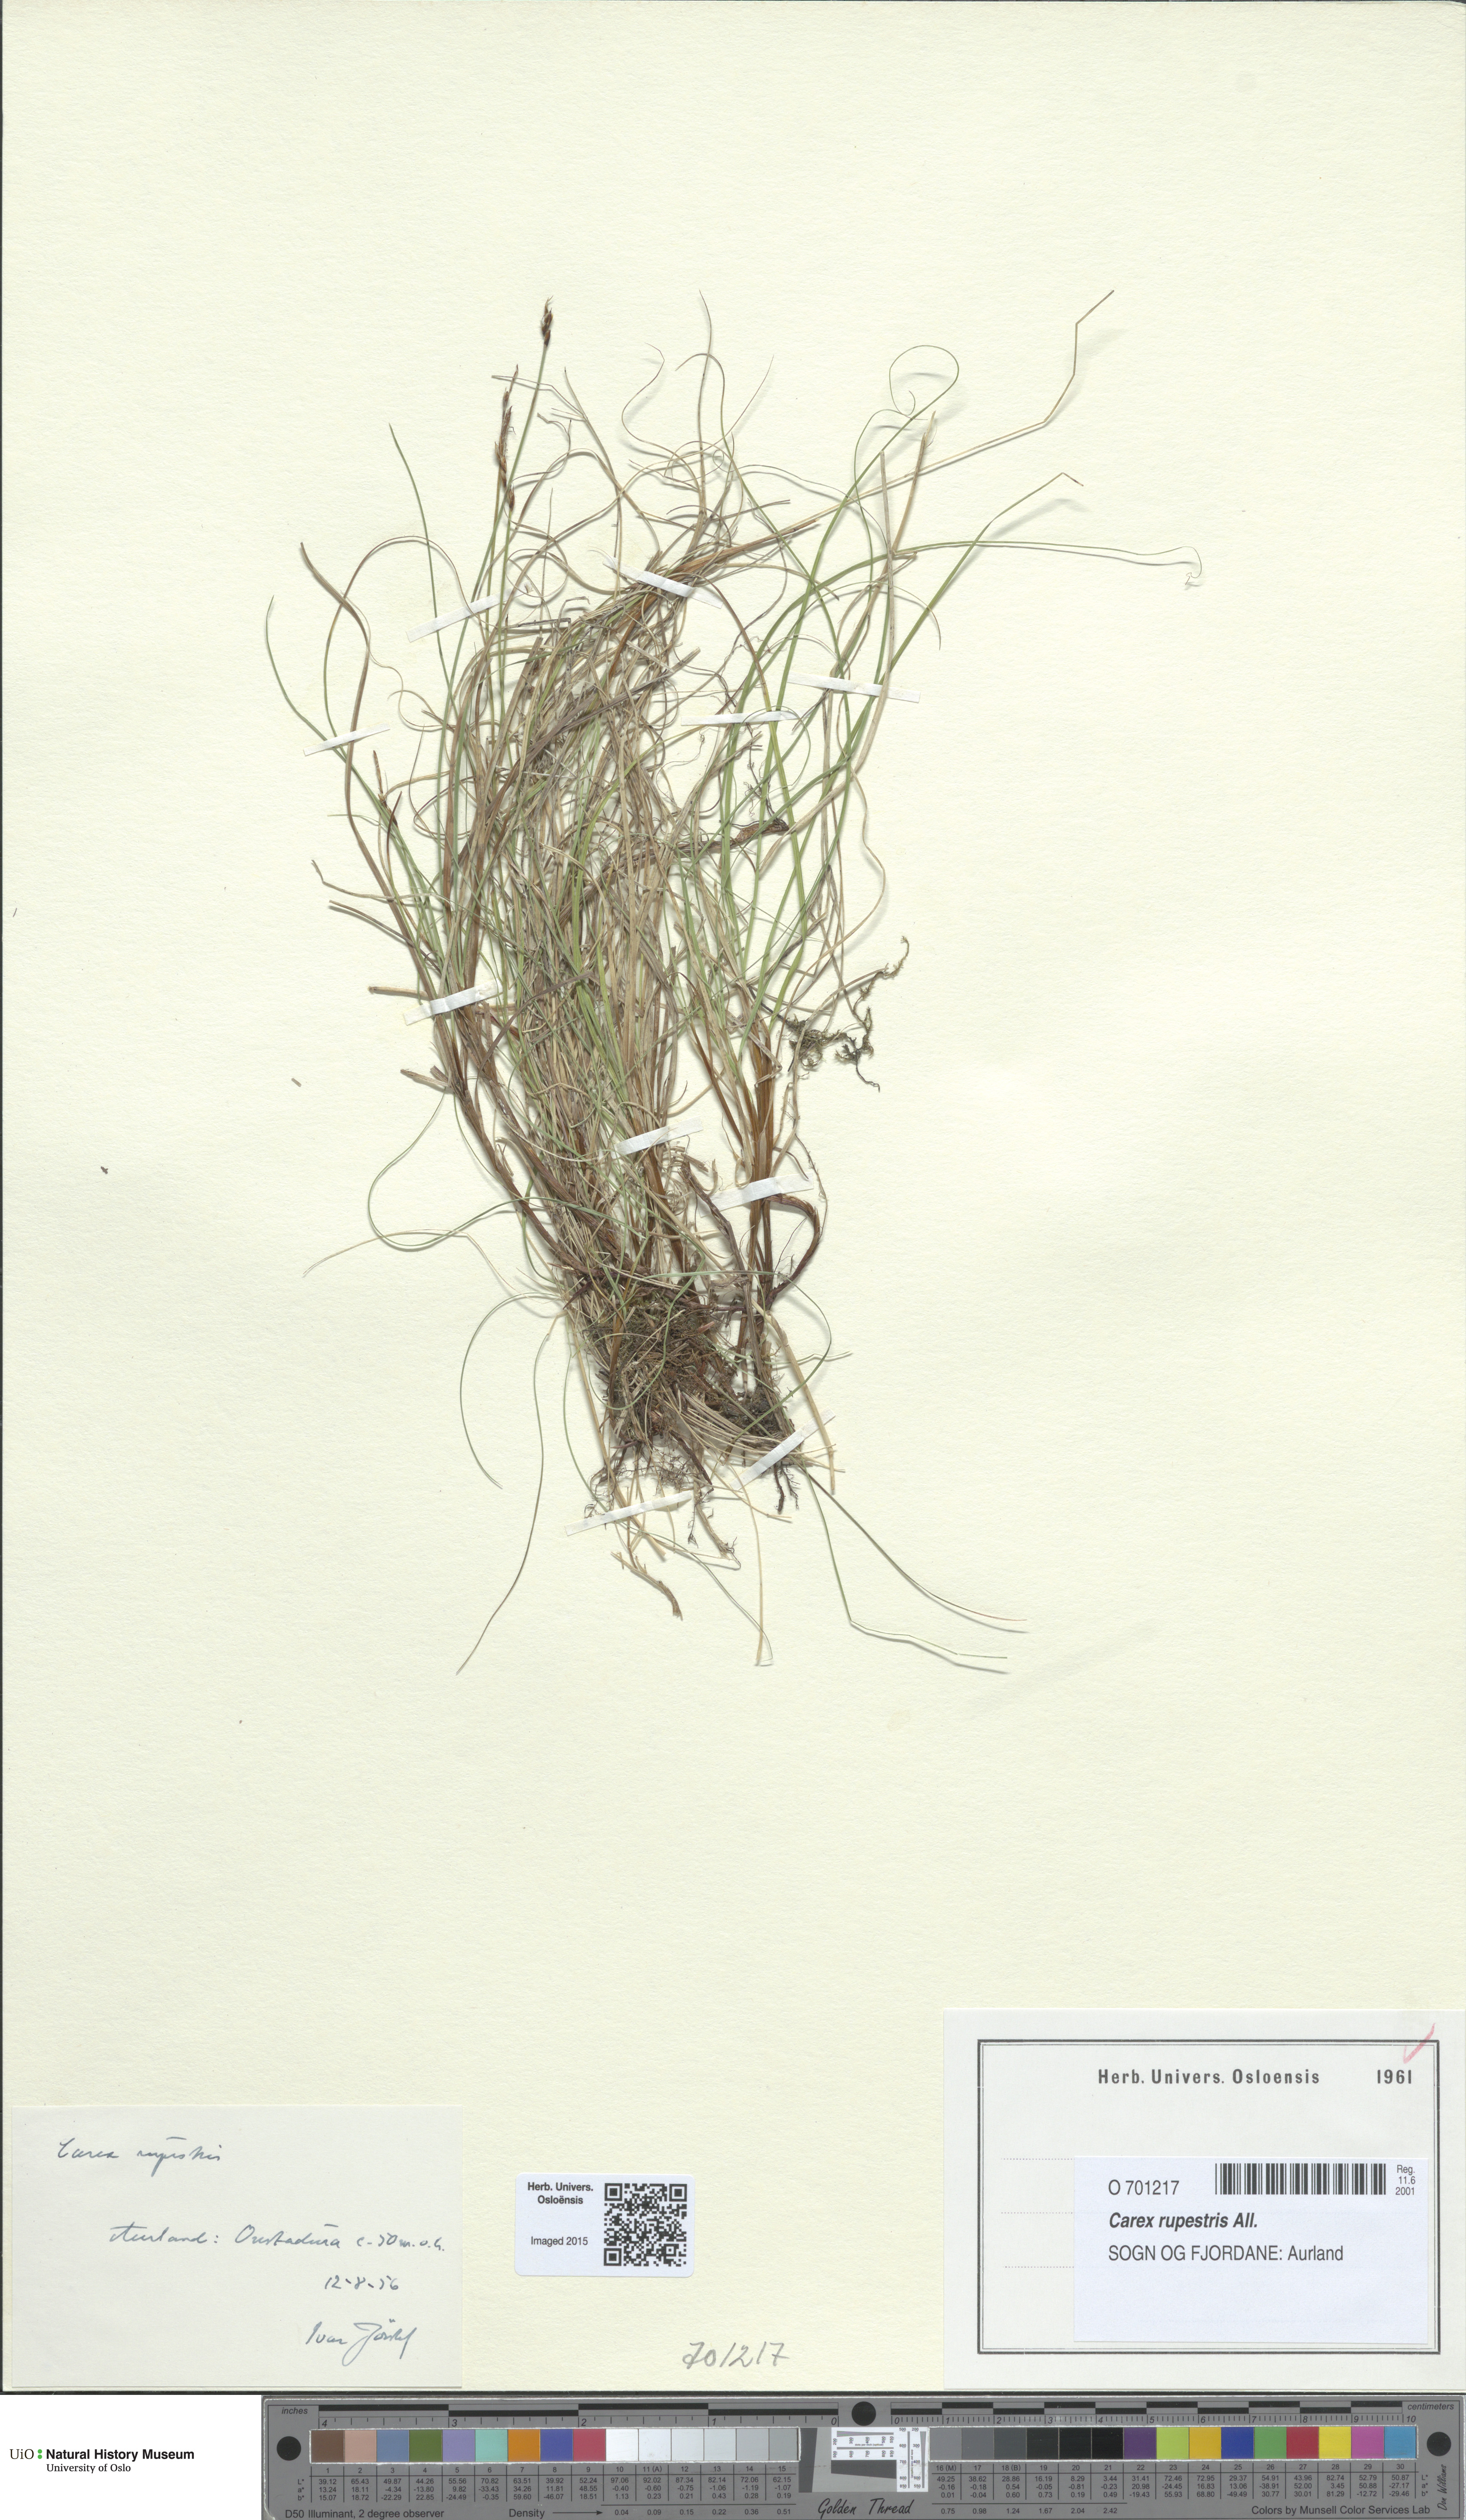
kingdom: Plantae
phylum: Tracheophyta
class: Liliopsida
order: Poales
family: Cyperaceae
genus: Carex
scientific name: Carex rupestris
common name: Rock sedge
